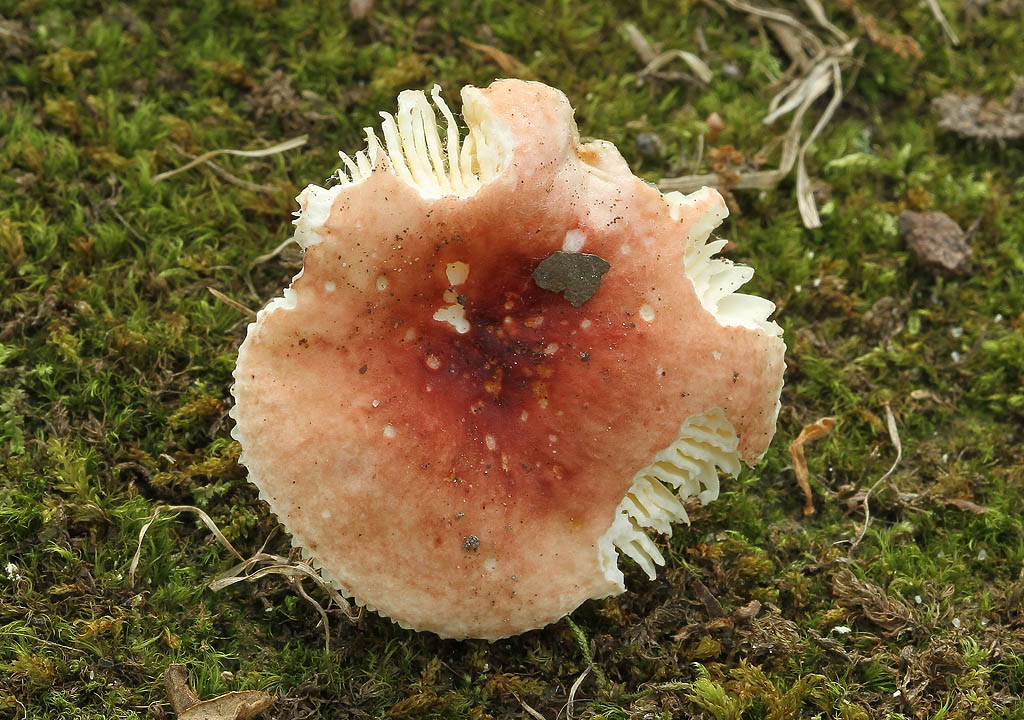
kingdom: Fungi
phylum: Basidiomycota
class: Agaricomycetes
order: Russulales
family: Russulaceae
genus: Russula
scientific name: Russula melzeri
